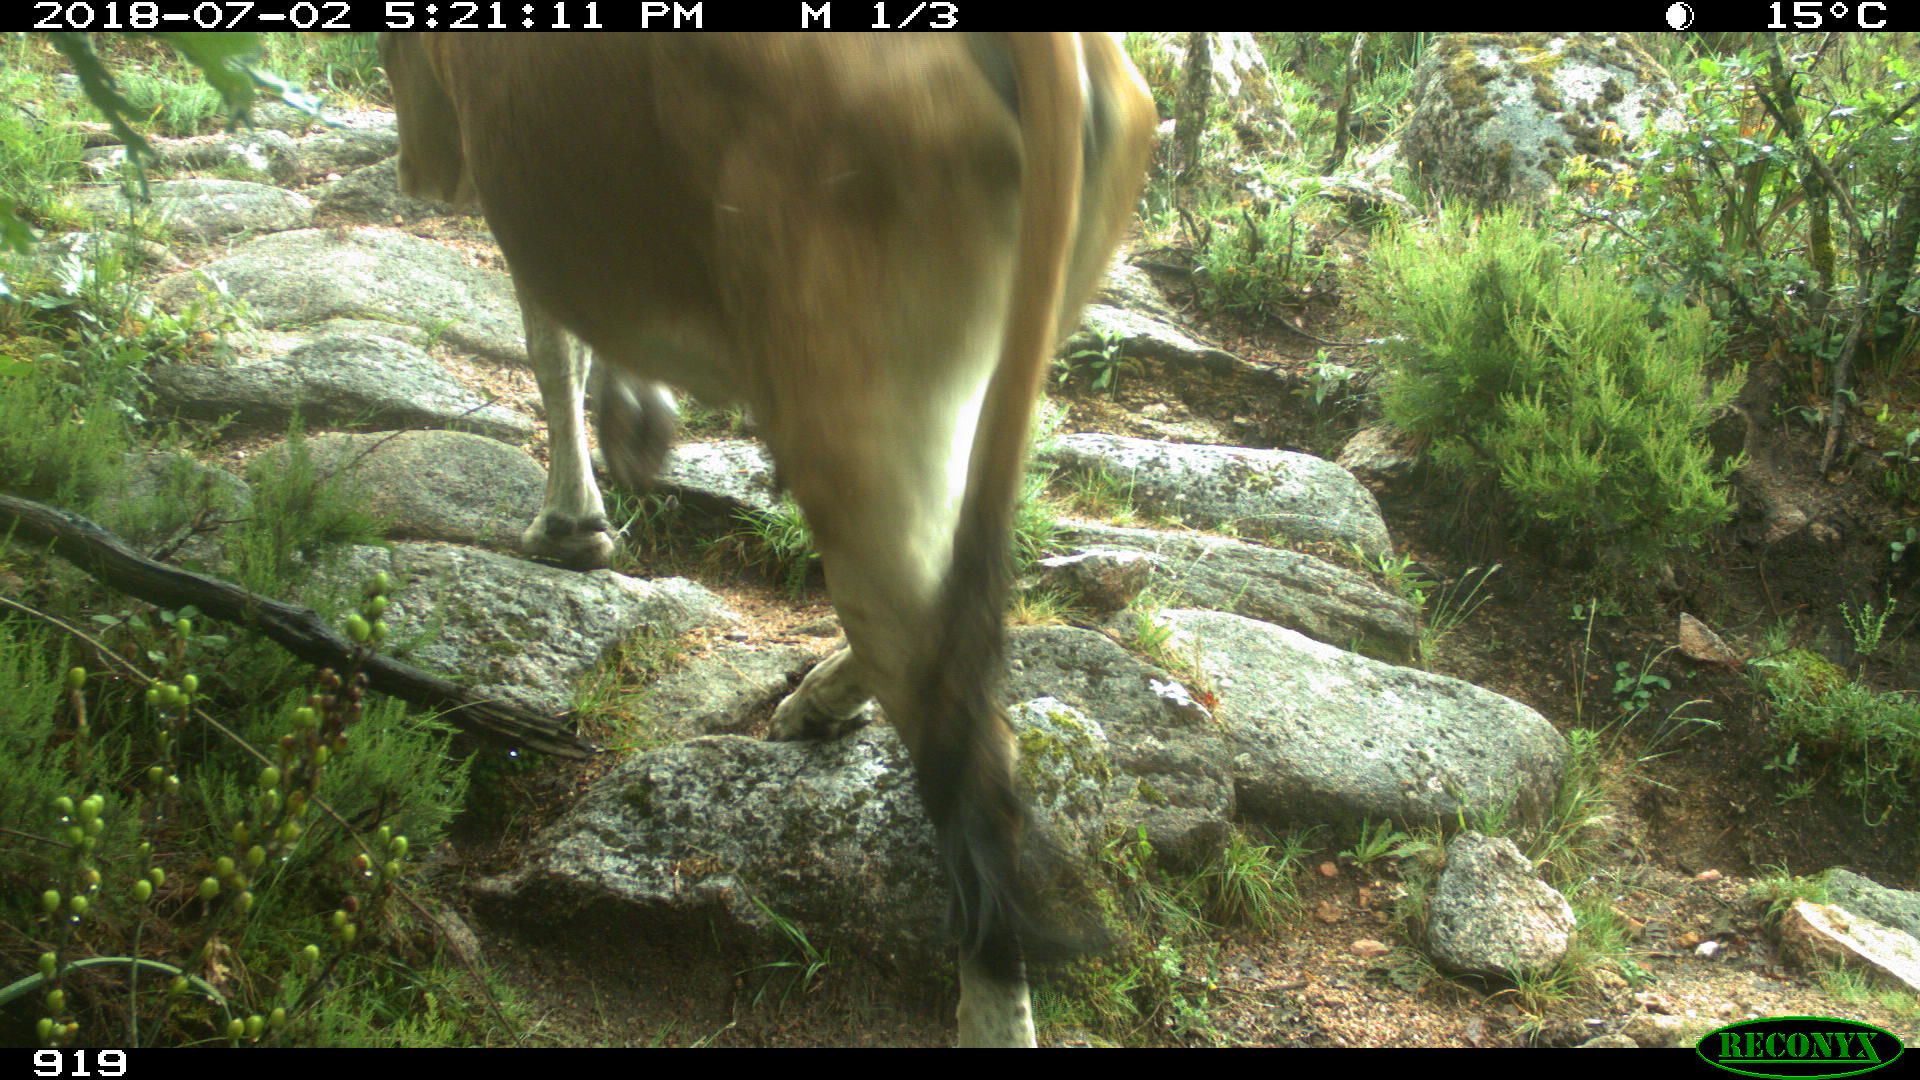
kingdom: Animalia
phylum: Chordata
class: Mammalia
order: Artiodactyla
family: Bovidae
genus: Bos
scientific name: Bos taurus
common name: Domesticated cattle
